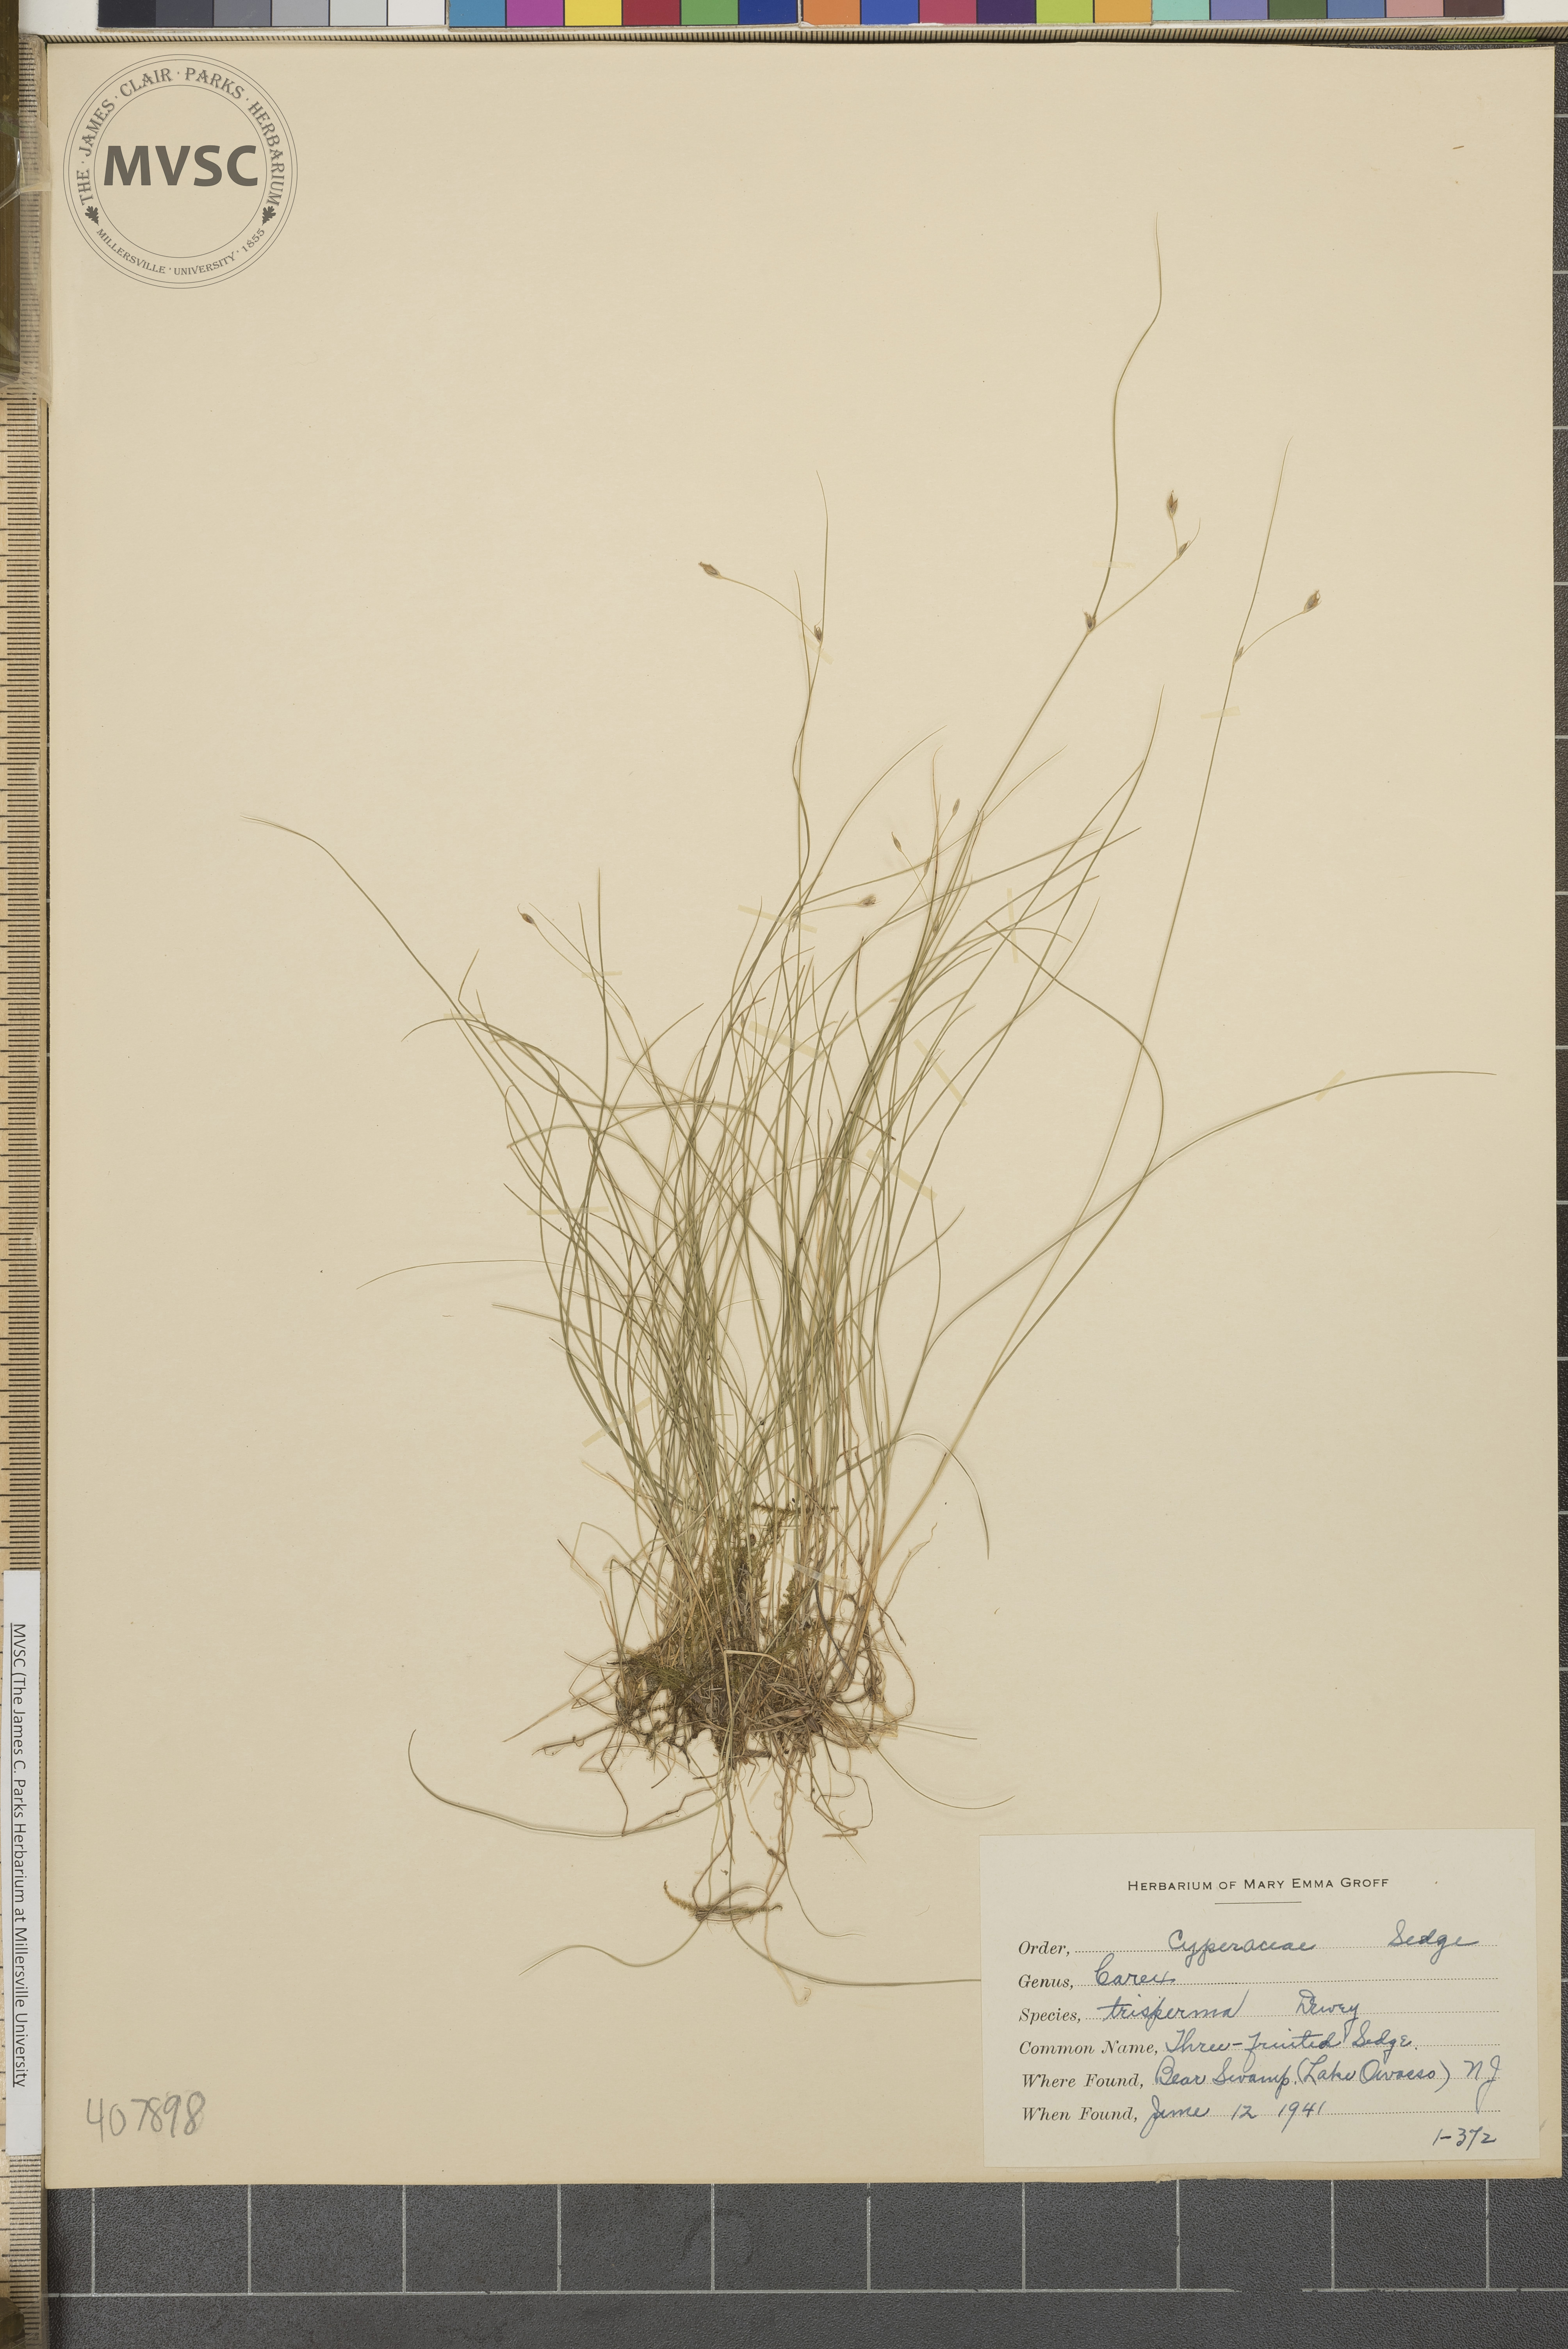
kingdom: Plantae
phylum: Tracheophyta
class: Liliopsida
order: Poales
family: Cyperaceae
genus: Carex
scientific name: Carex trisperma
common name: Three-fruited Sedge
